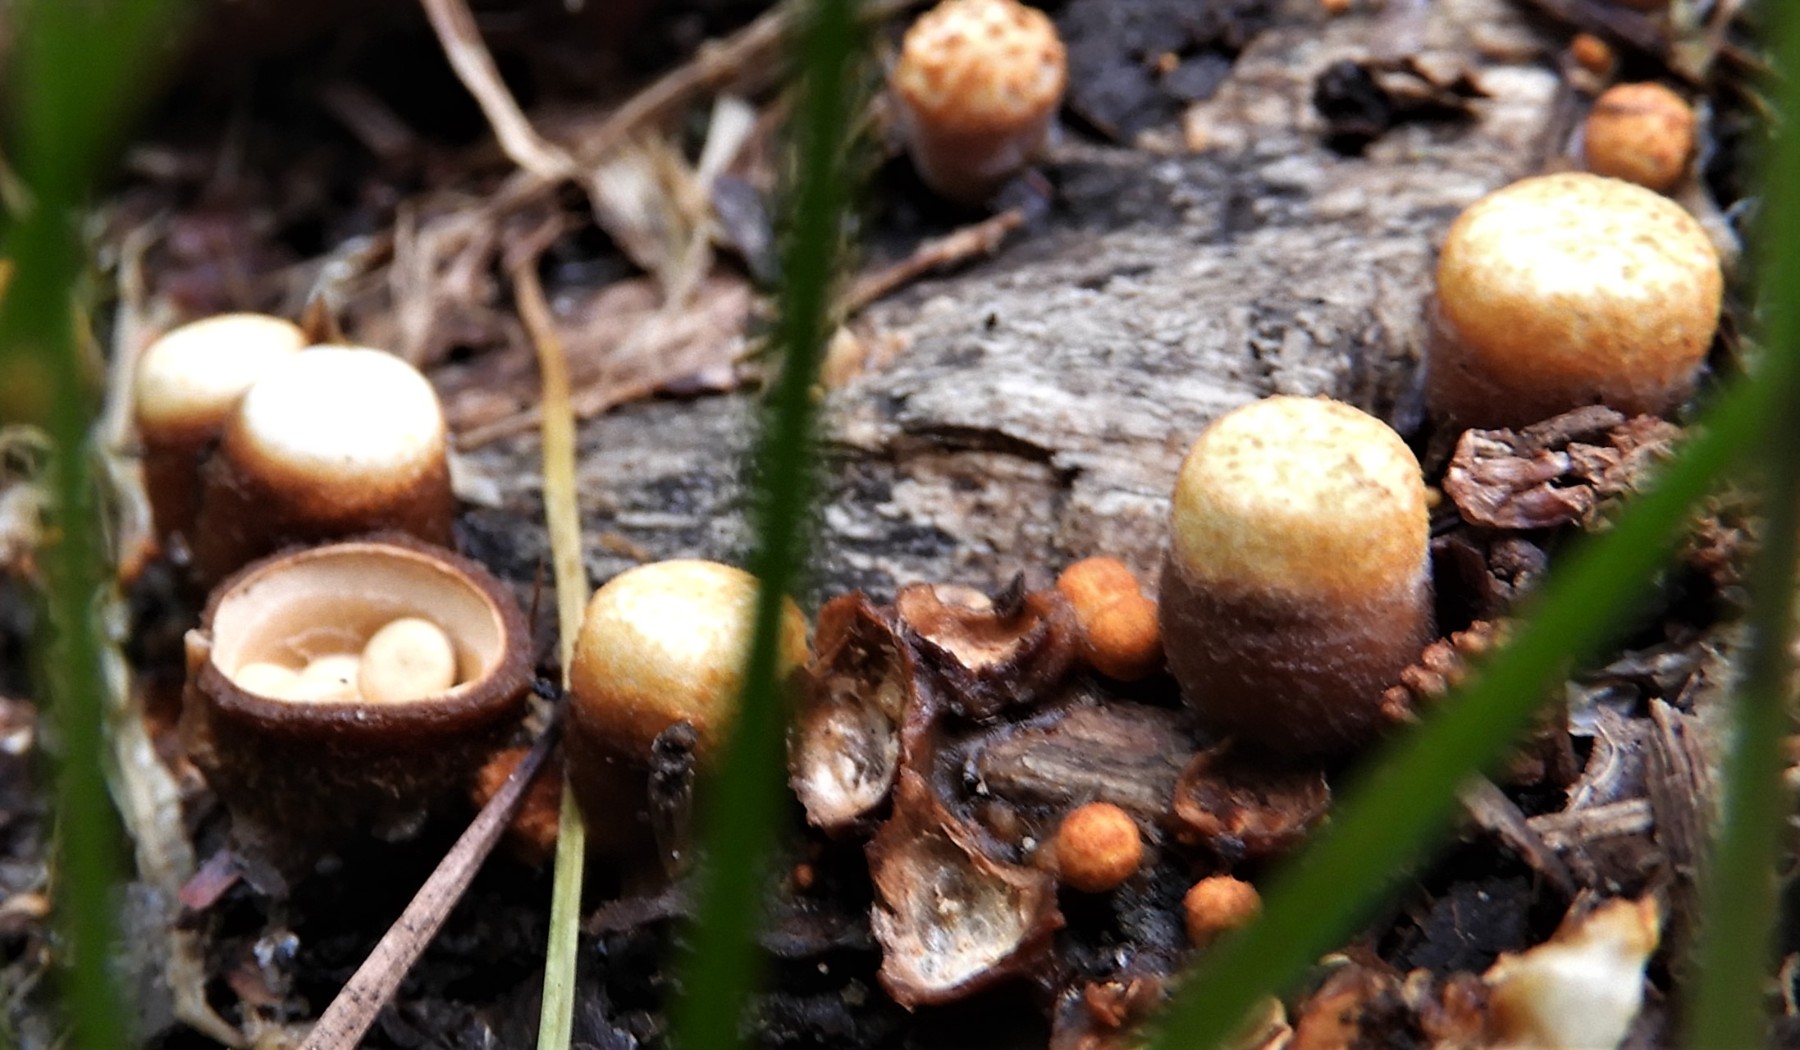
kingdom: Fungi
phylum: Basidiomycota
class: Agaricomycetes
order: Agaricales
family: Nidulariaceae
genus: Crucibulum
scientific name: Crucibulum crucibuliforme
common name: krukkesvamp
